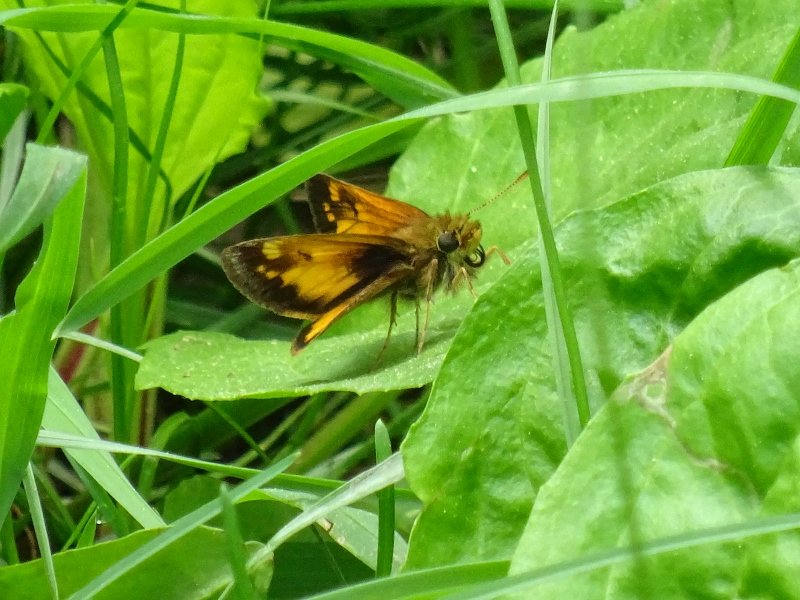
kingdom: Animalia
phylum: Arthropoda
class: Insecta
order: Lepidoptera
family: Hesperiidae
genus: Lon
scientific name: Lon hobomok
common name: Hobomok Skipper
